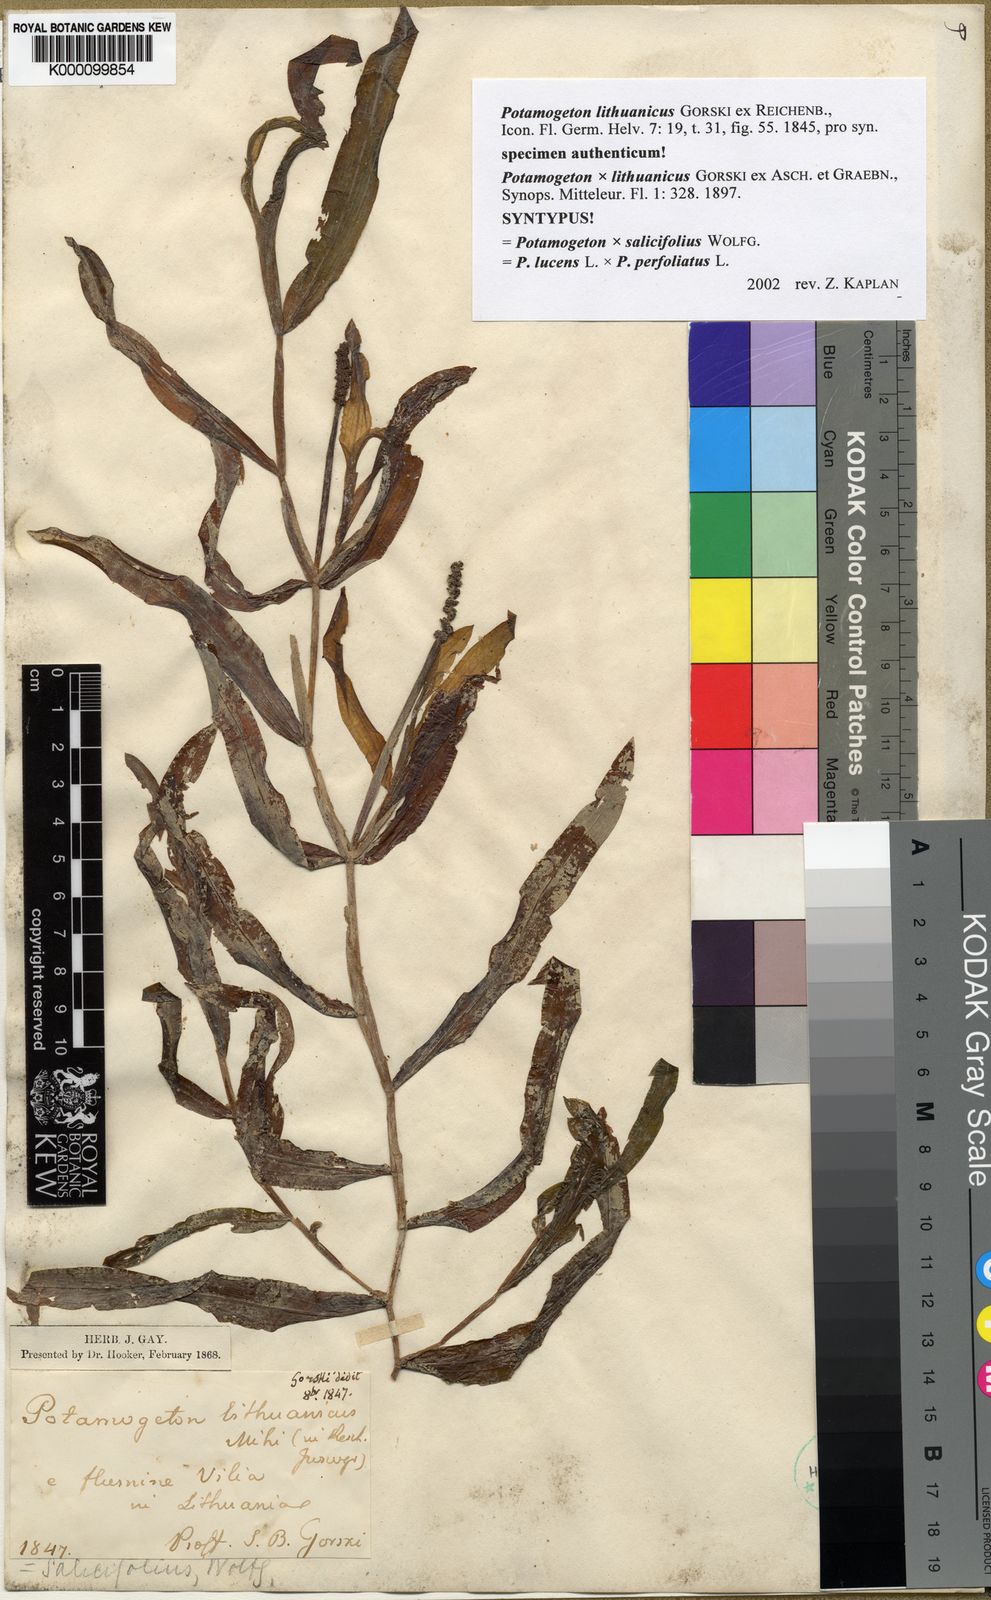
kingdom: Plantae
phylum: Tracheophyta
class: Liliopsida
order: Alismatales
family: Potamogetonaceae
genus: Potamogeton
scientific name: Potamogeton lucens
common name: Shining pondweed
